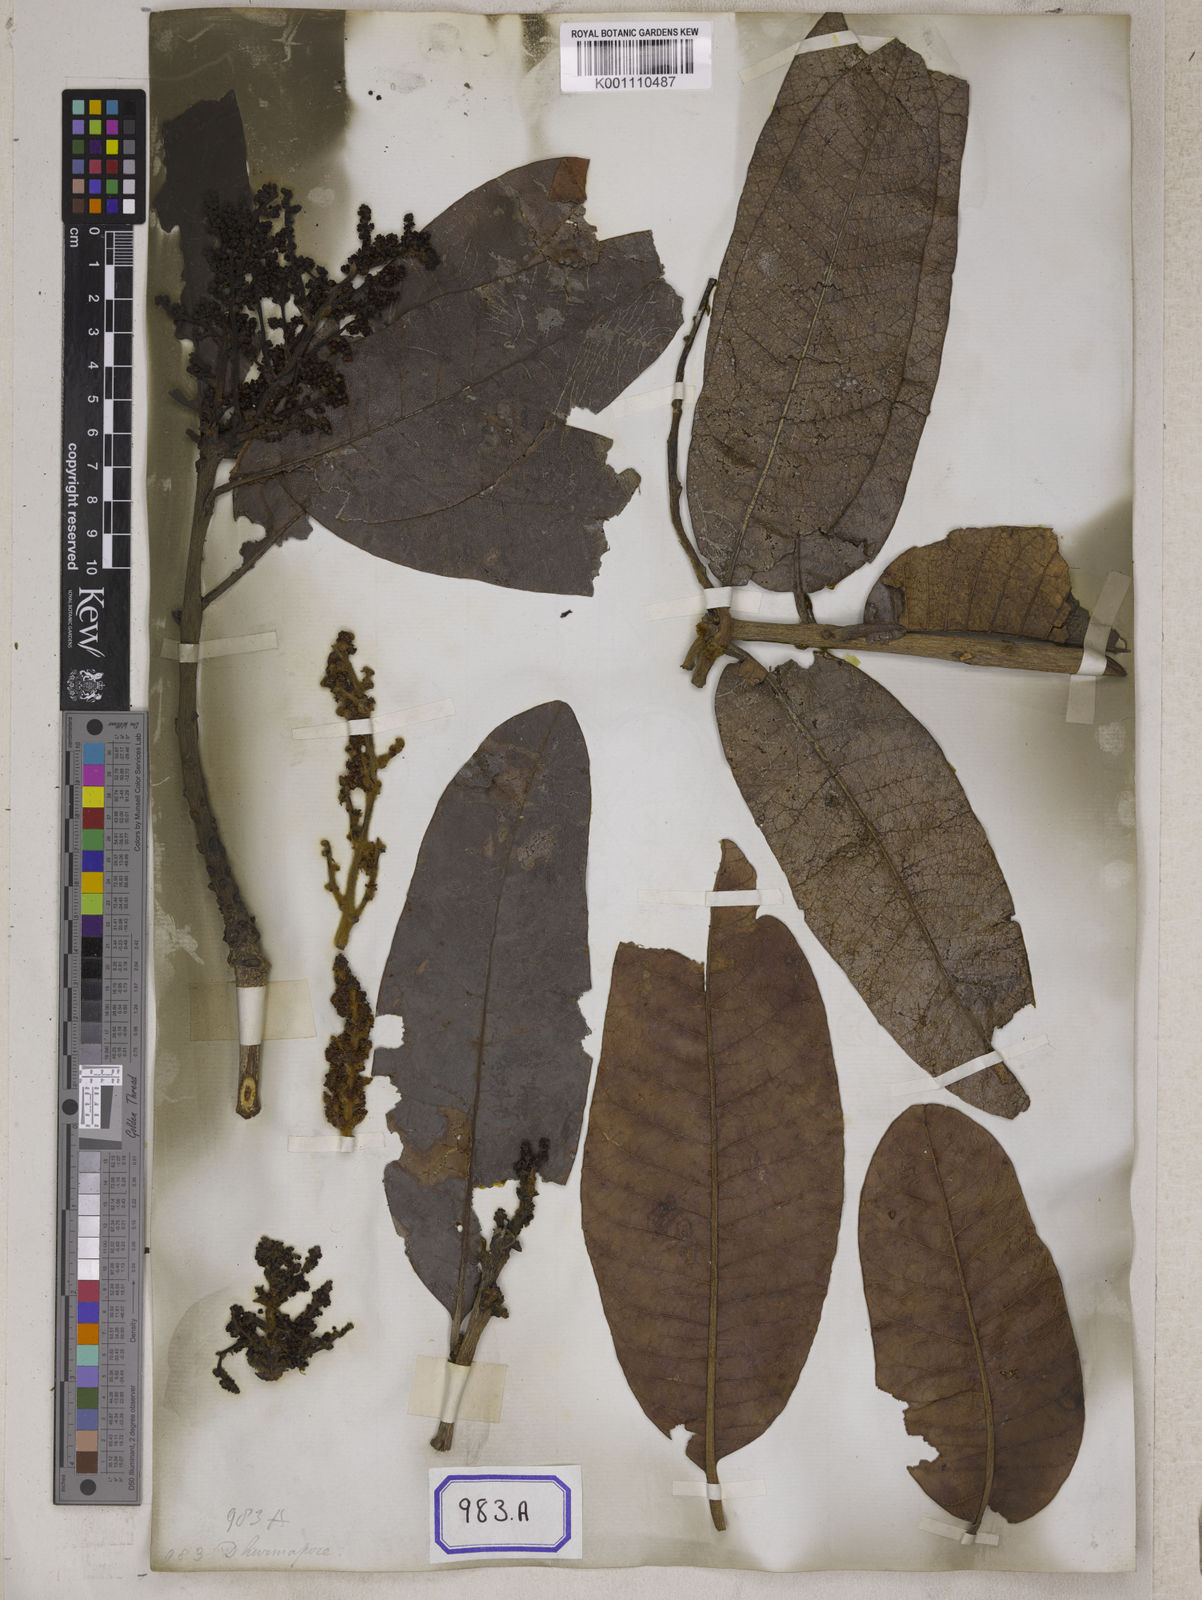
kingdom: Plantae
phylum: Tracheophyta
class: Magnoliopsida
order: Sapindales
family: Anacardiaceae
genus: Buchanania
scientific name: Buchanania cochinchinensis
